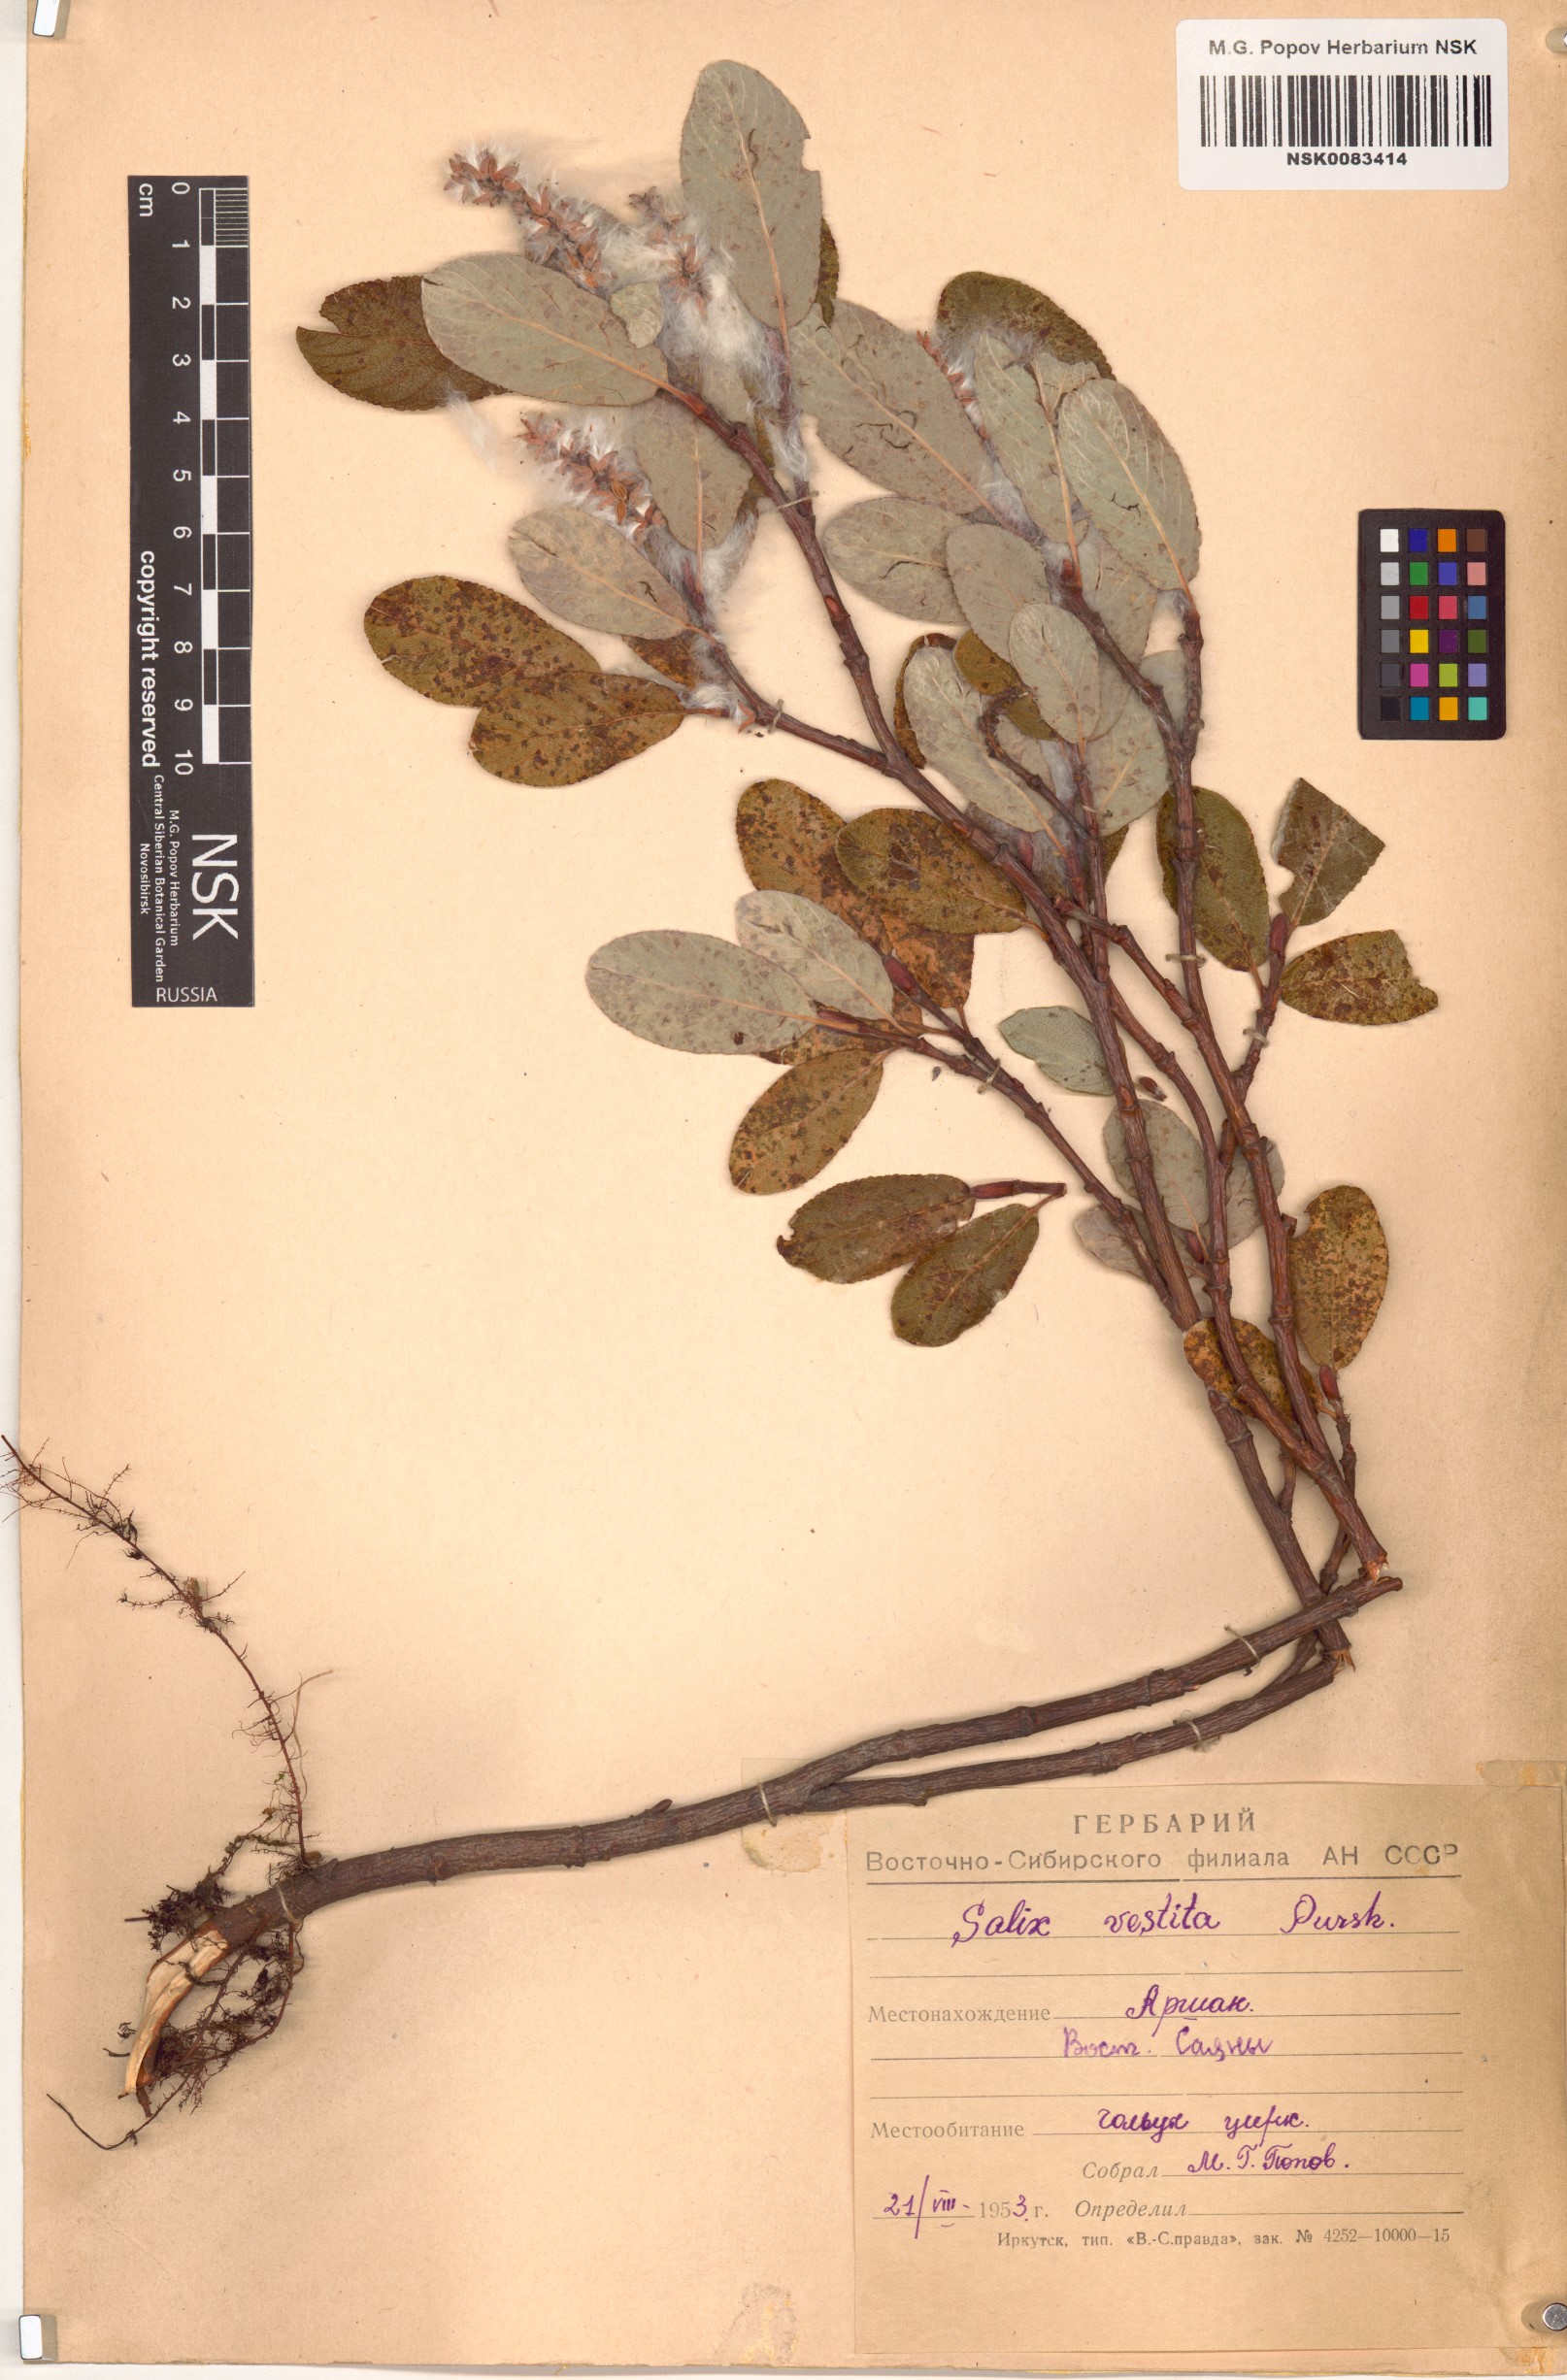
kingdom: Plantae
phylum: Tracheophyta
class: Magnoliopsida
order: Malpighiales
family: Salicaceae
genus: Salix
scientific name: Salix vestita
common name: Hairy willow
